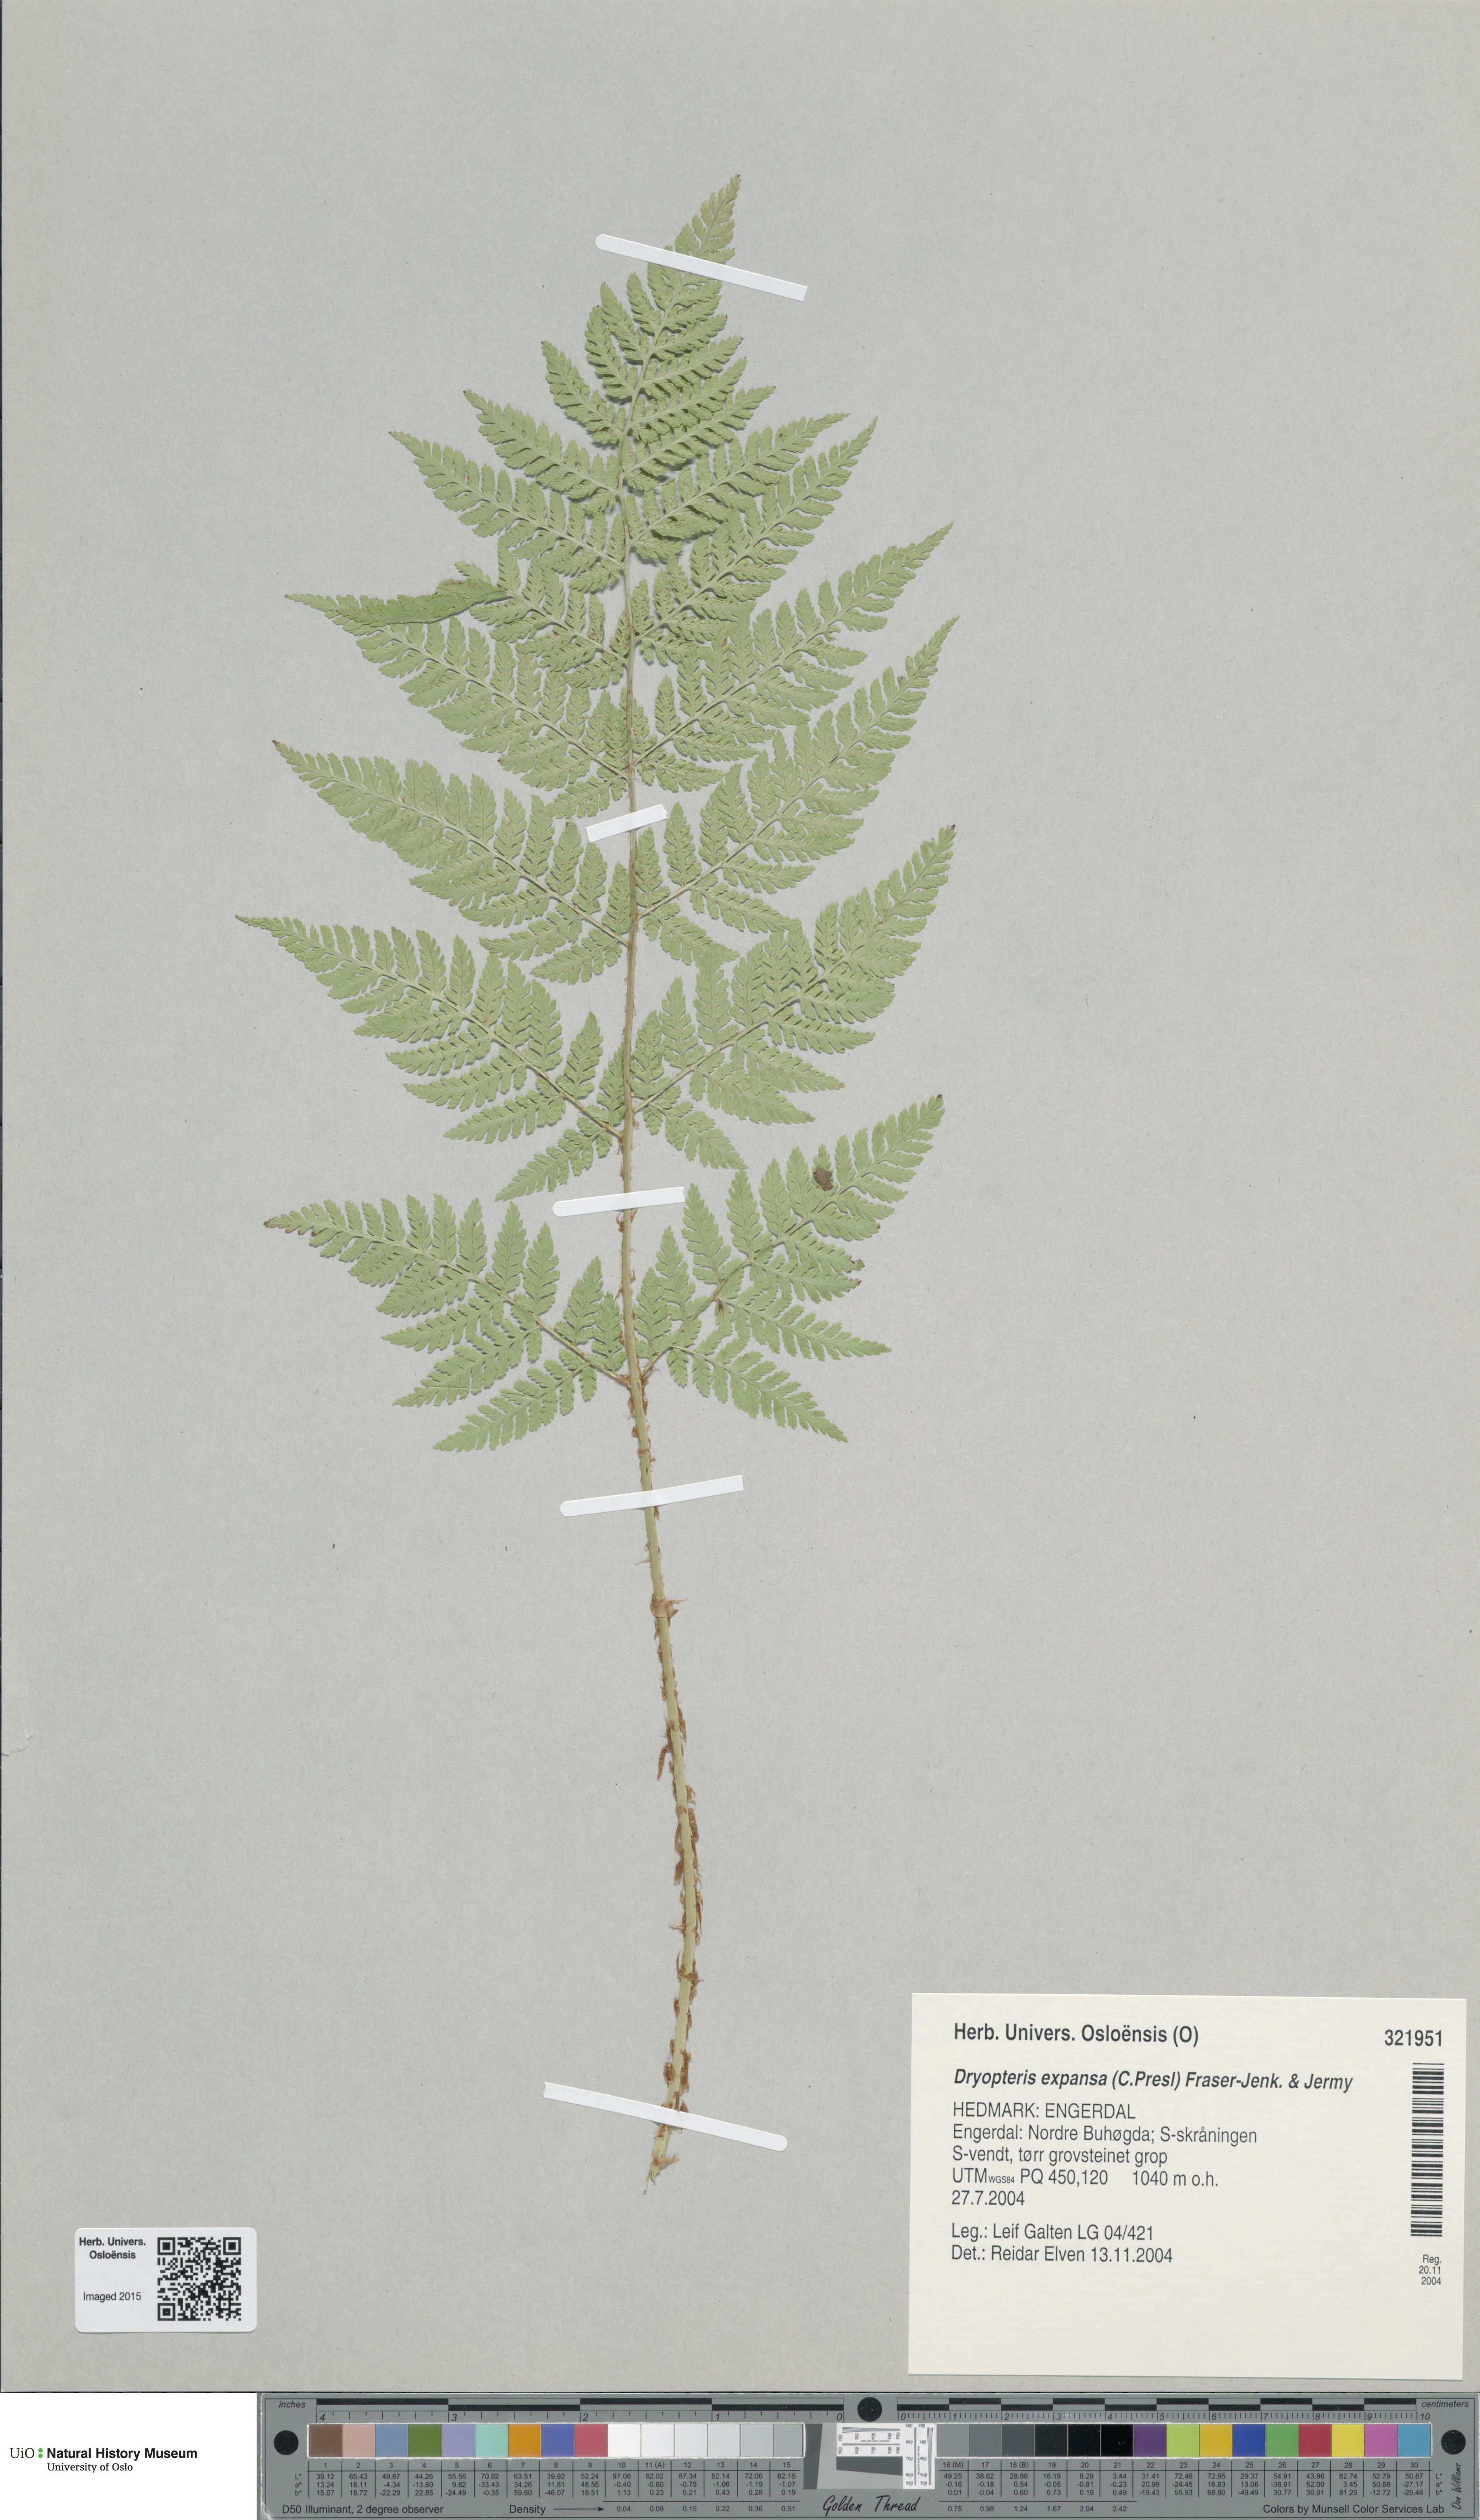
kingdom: Plantae
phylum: Tracheophyta
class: Polypodiopsida
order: Polypodiales
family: Dryopteridaceae
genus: Dryopteris
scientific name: Dryopteris expansa
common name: Northern buckler fern
